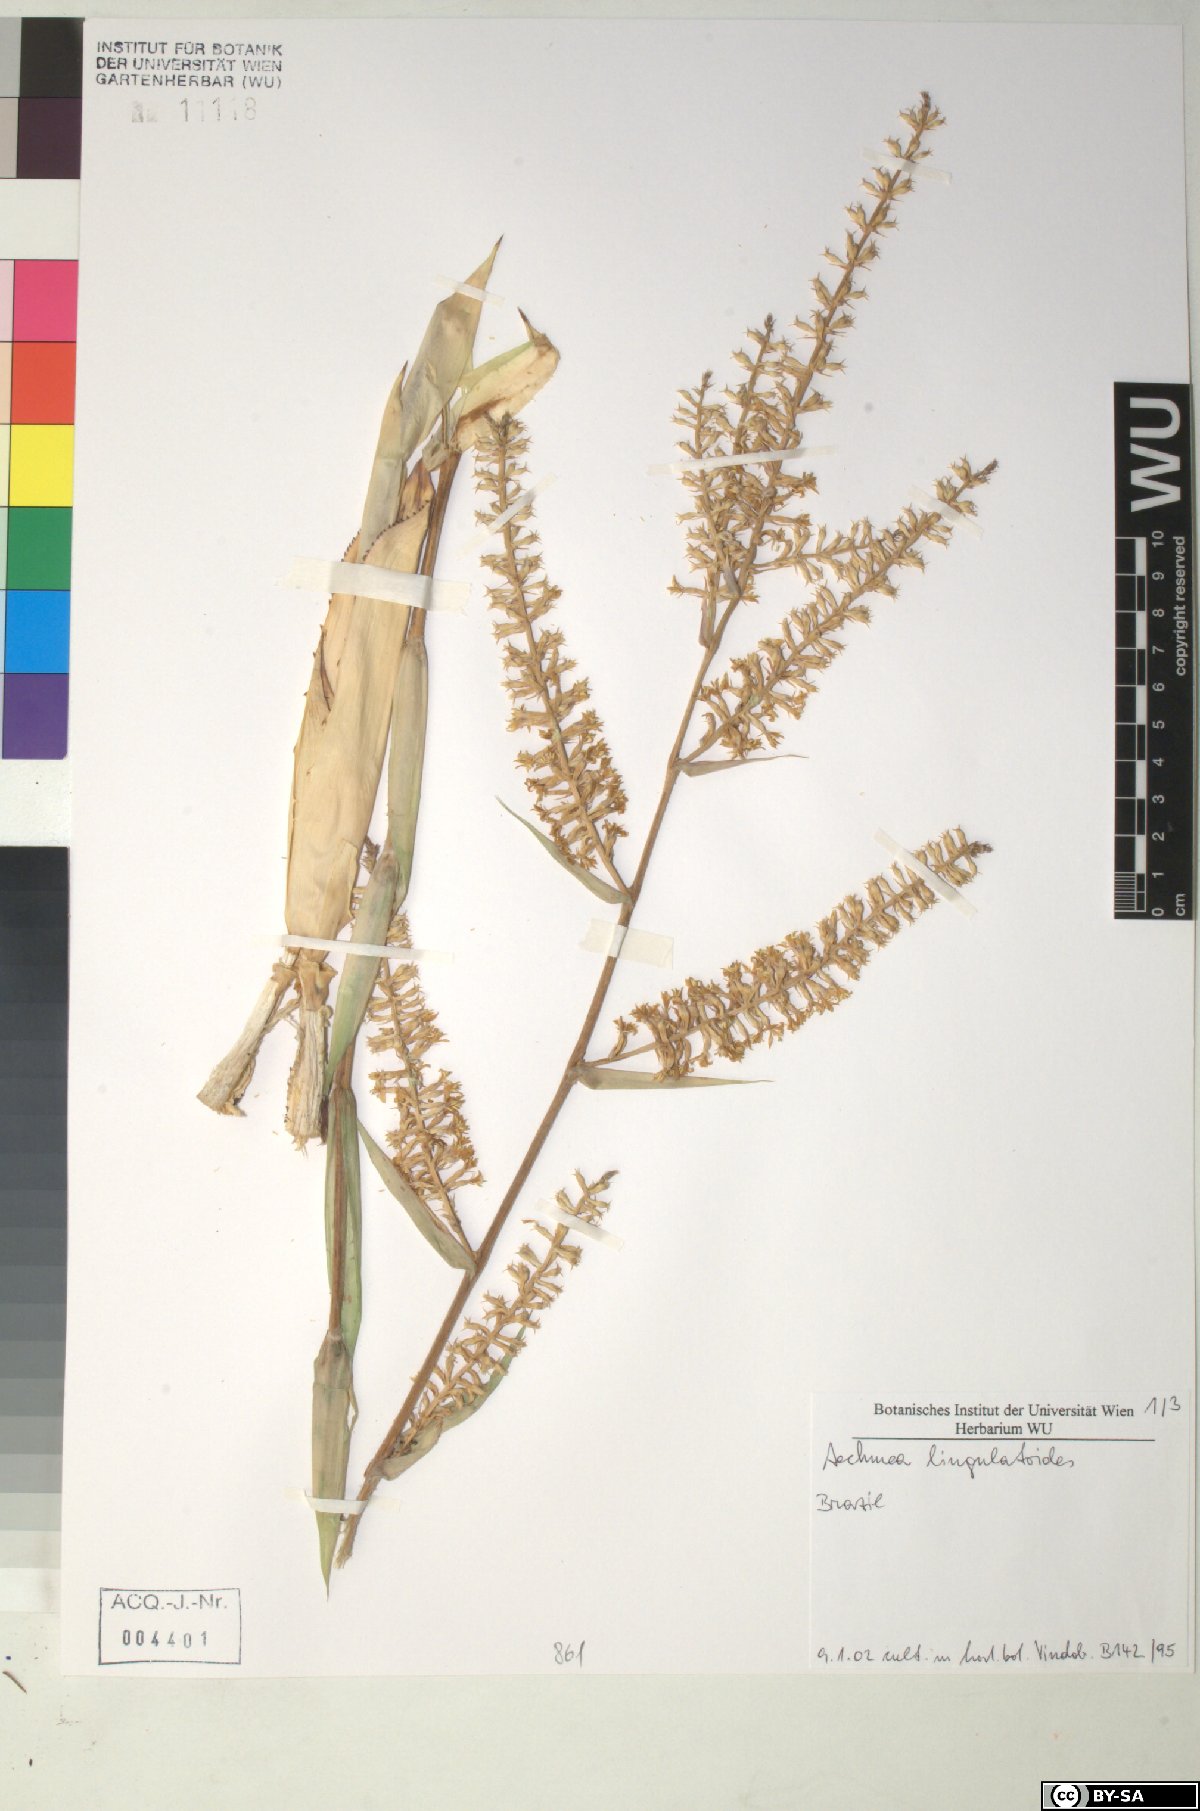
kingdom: Plantae
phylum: Tracheophyta
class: Liliopsida
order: Poales
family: Bromeliaceae
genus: Wittmackia
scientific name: Wittmackia lingulatoides
